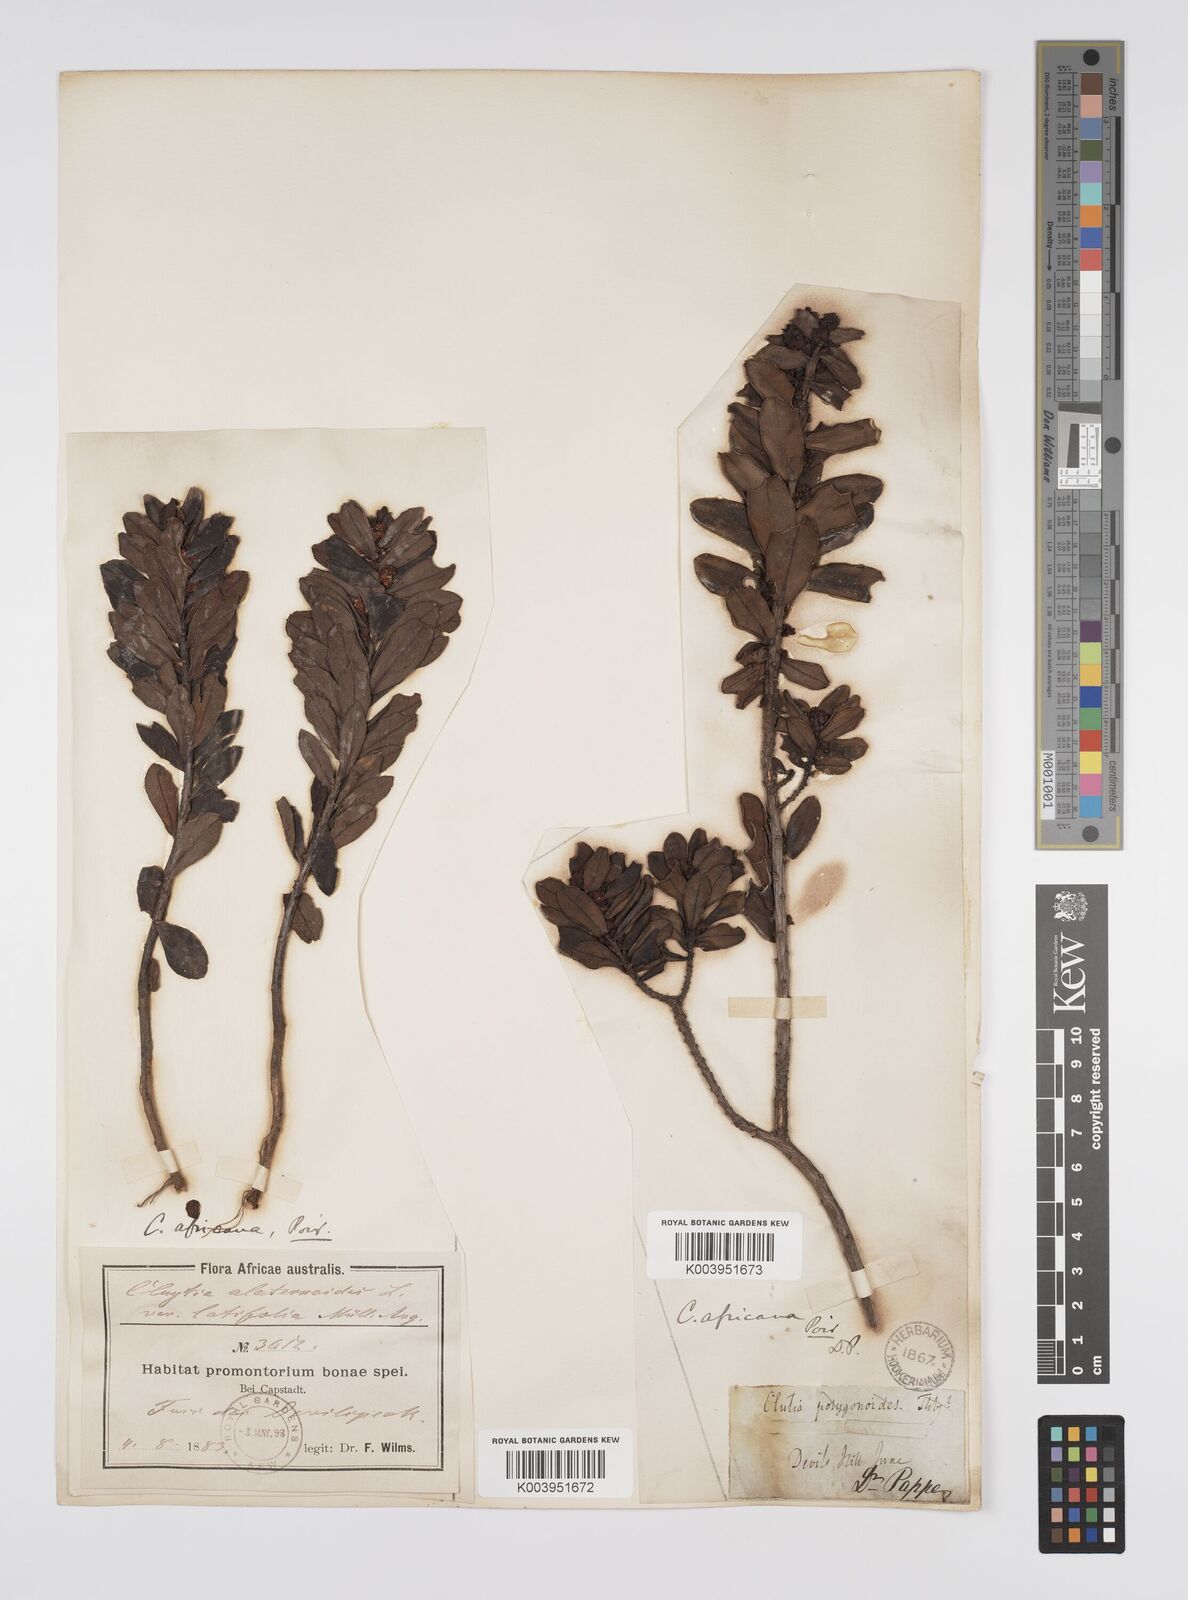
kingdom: Plantae
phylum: Tracheophyta
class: Magnoliopsida
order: Malpighiales
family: Peraceae
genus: Clutia
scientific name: Clutia africana
